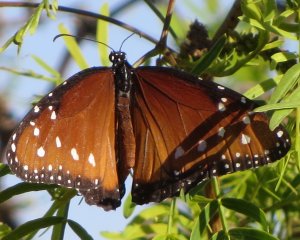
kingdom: Animalia
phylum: Arthropoda
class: Insecta
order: Lepidoptera
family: Nymphalidae
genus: Danaus
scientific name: Danaus gilippus
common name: Queen
